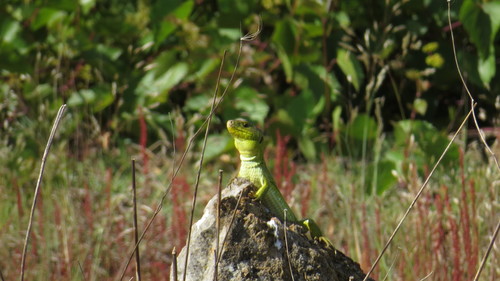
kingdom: Animalia
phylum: Chordata
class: Squamata
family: Lacertidae
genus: Timon
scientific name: Timon lepidus
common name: Ocellated lizard
